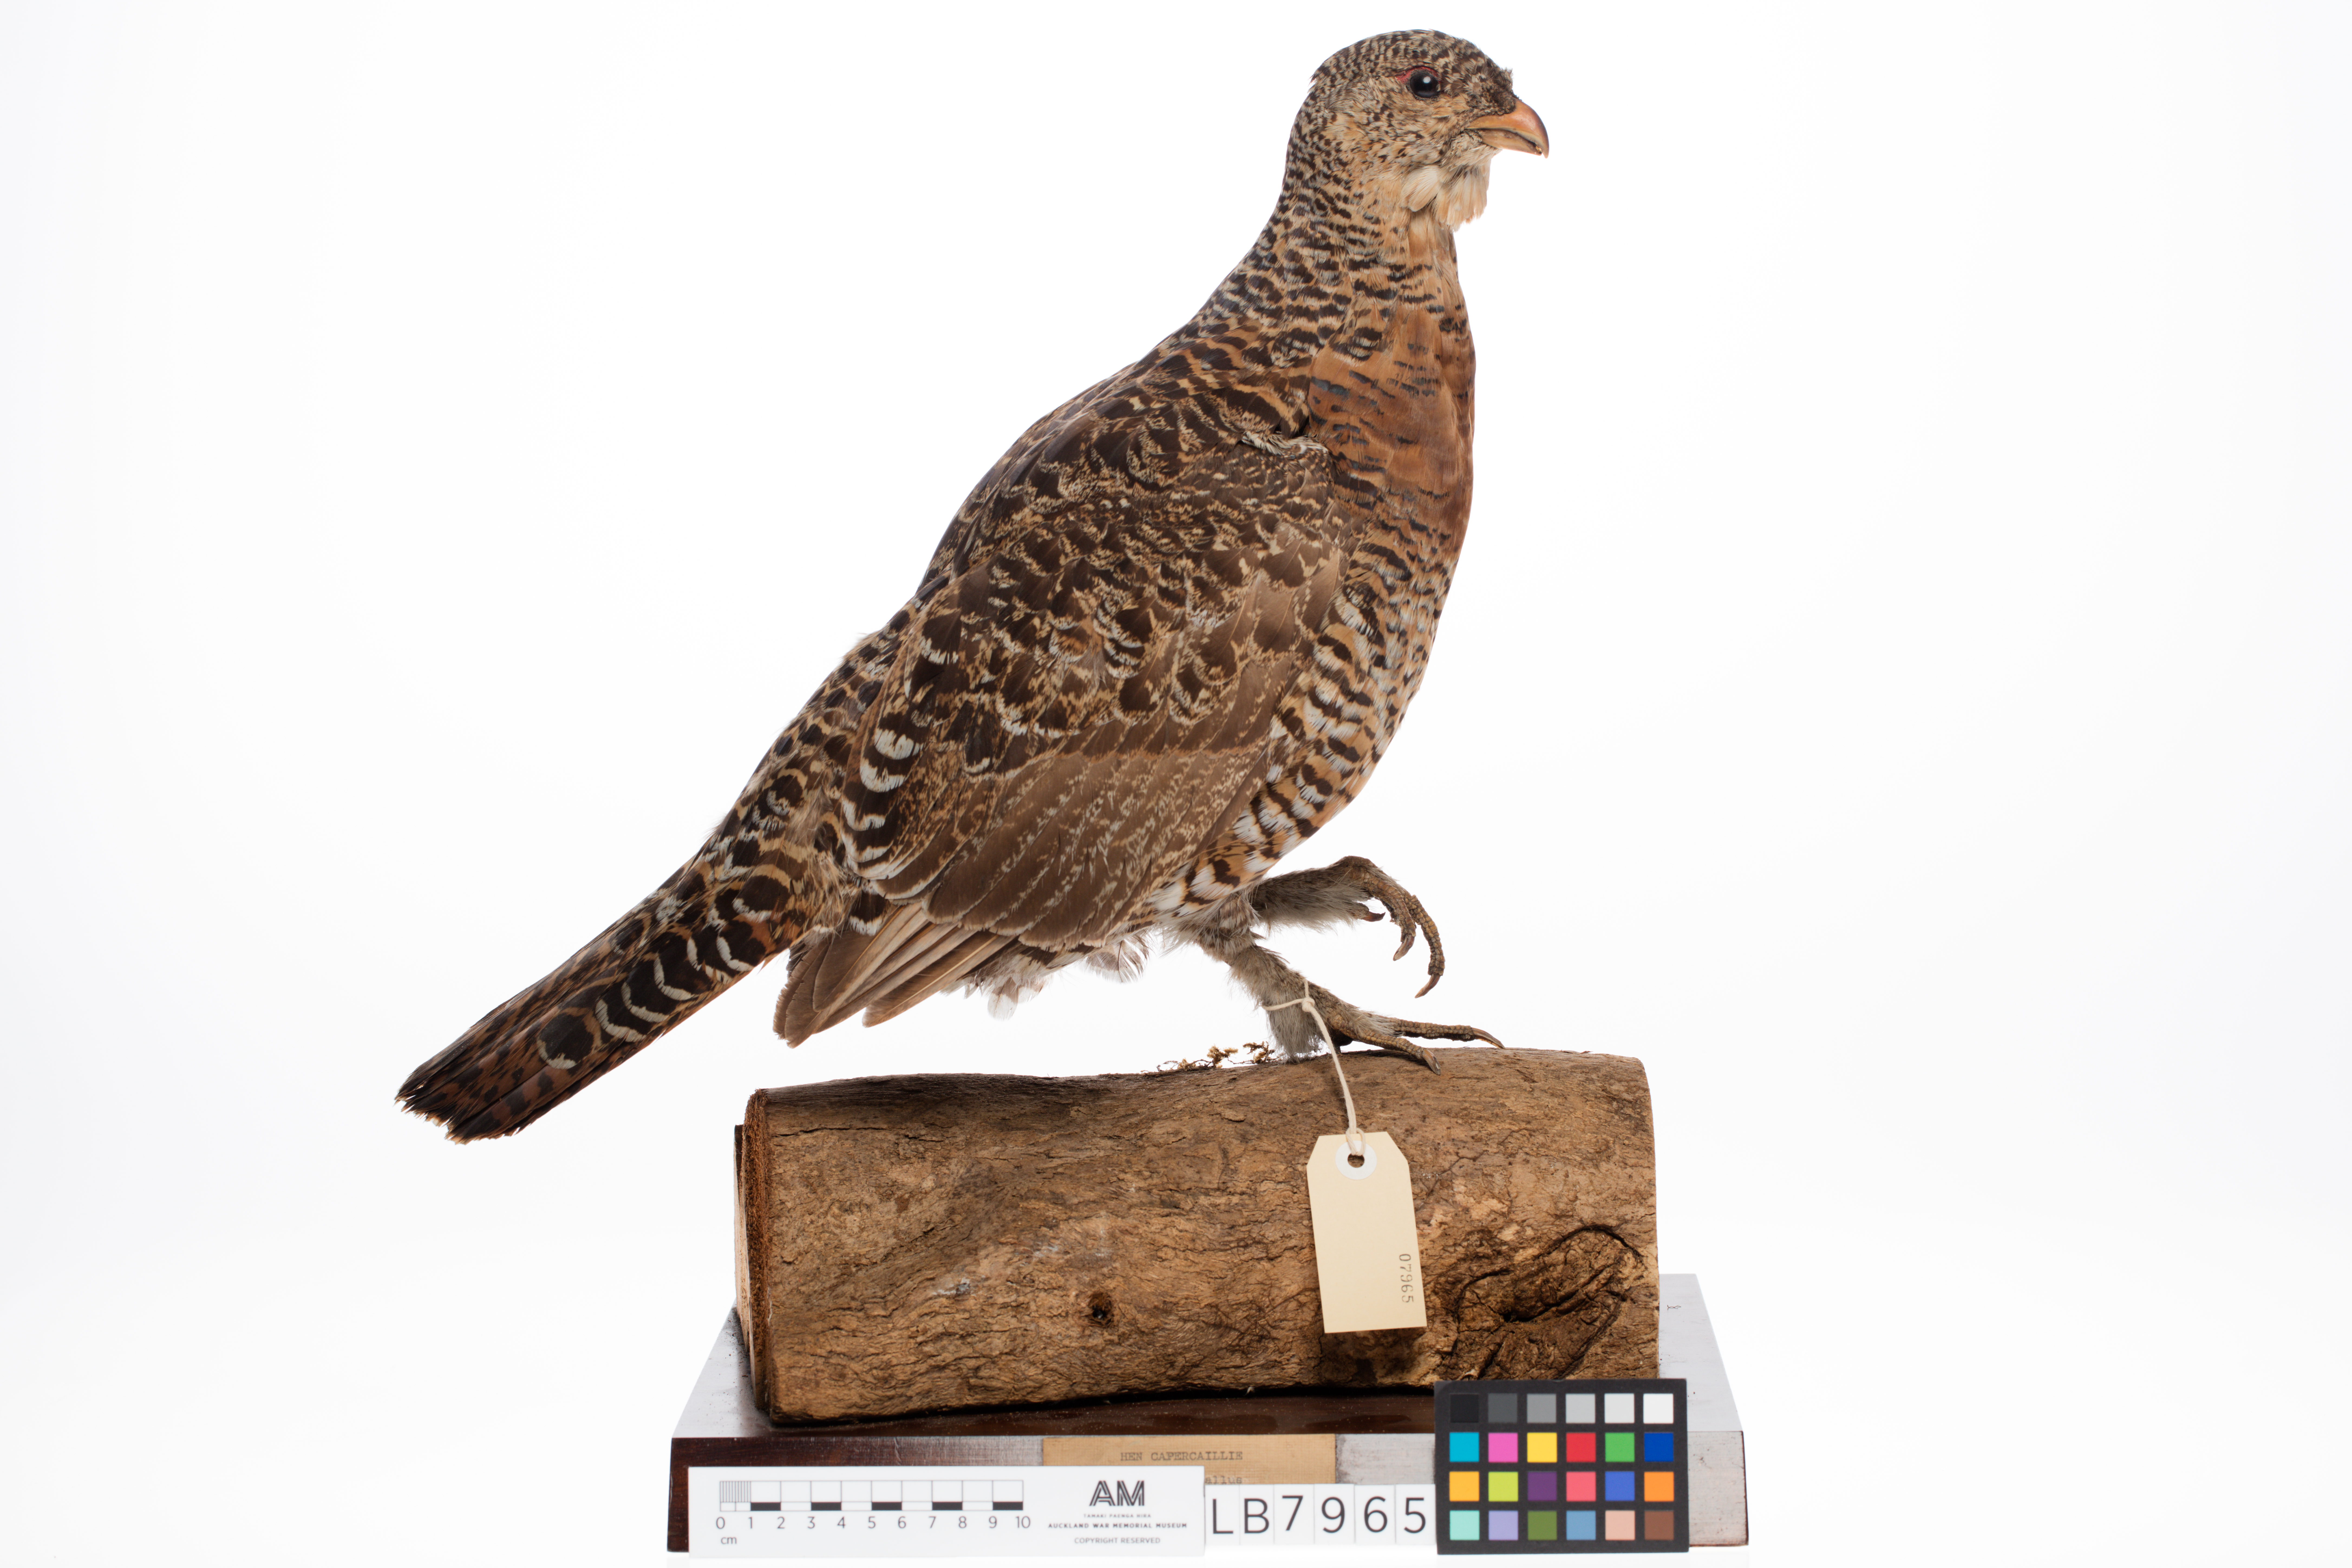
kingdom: Animalia
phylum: Chordata
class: Aves
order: Galliformes
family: Phasianidae
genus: Tetrao
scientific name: Tetrao urogallus
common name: Western capercaillie
